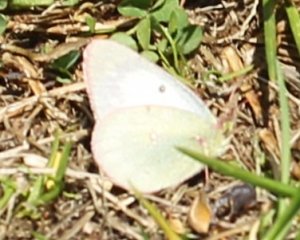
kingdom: Animalia
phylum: Arthropoda
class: Insecta
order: Lepidoptera
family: Pieridae
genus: Pieris
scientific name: Pieris rapae
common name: Cabbage White
